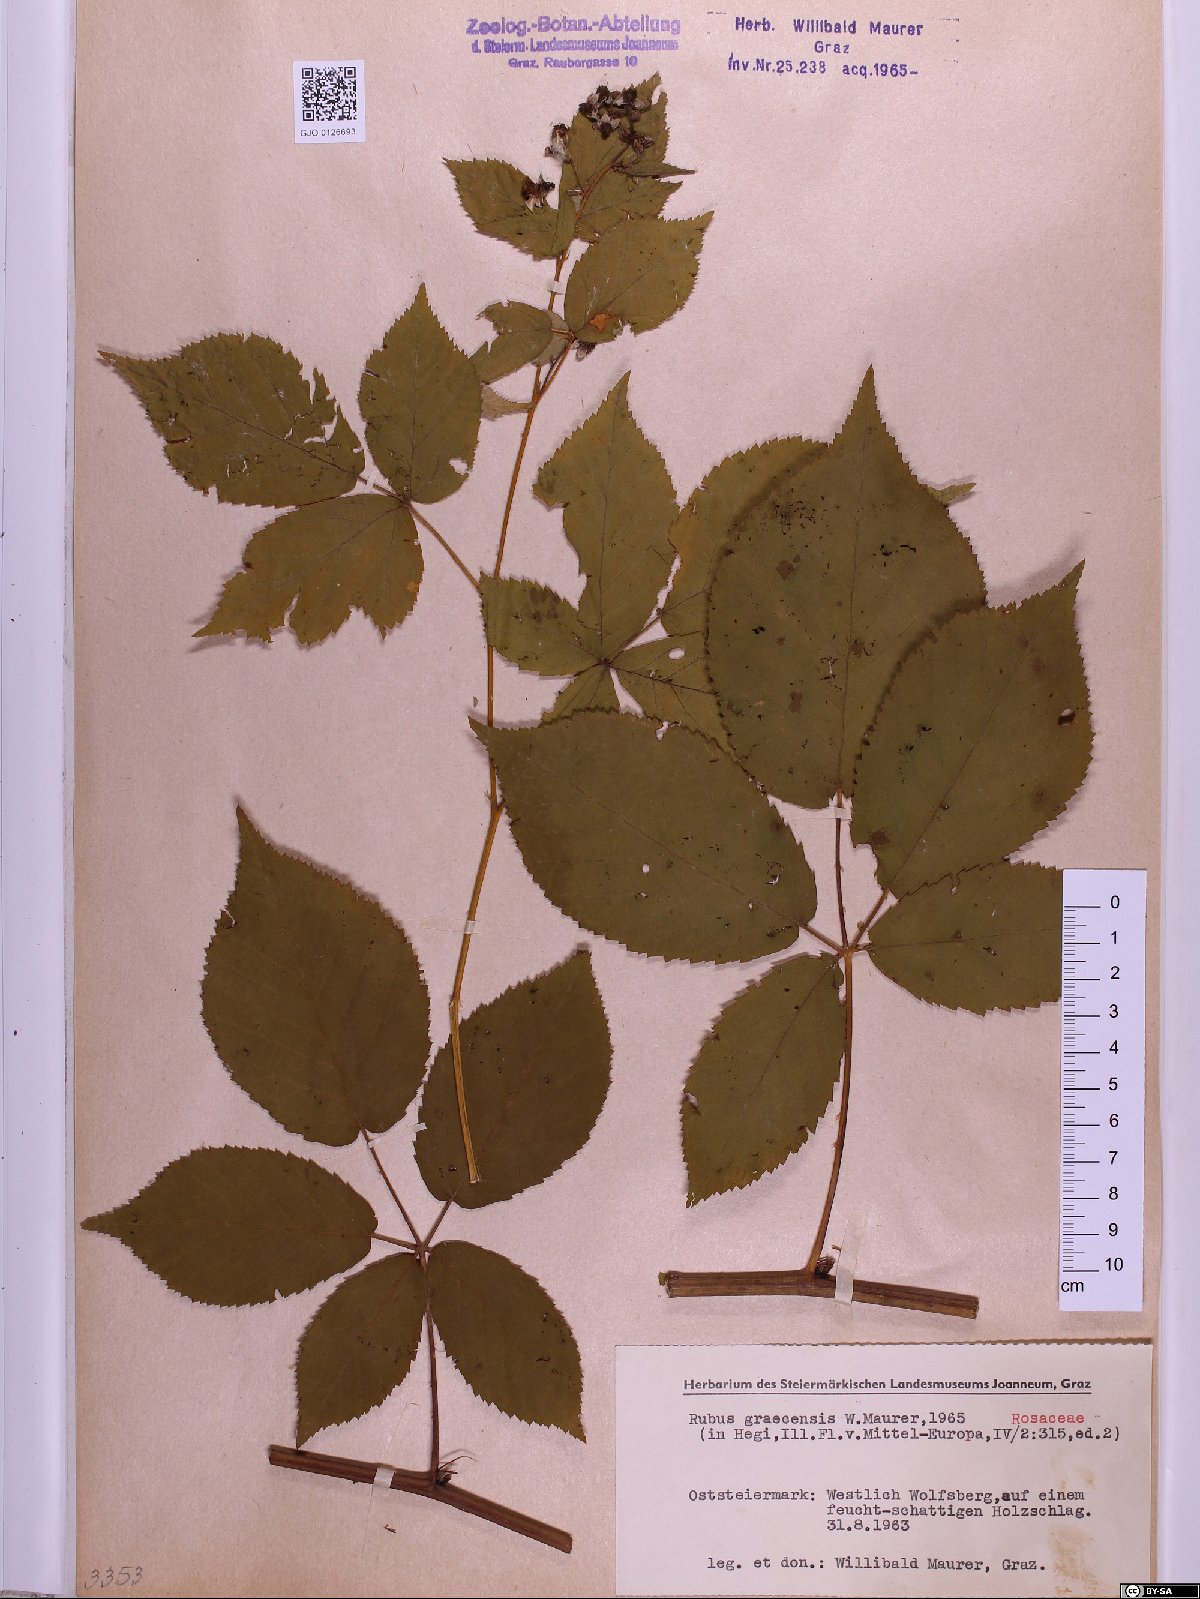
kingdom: Plantae
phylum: Tracheophyta
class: Magnoliopsida
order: Rosales
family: Rosaceae
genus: Rubus
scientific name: Rubus graecensis
